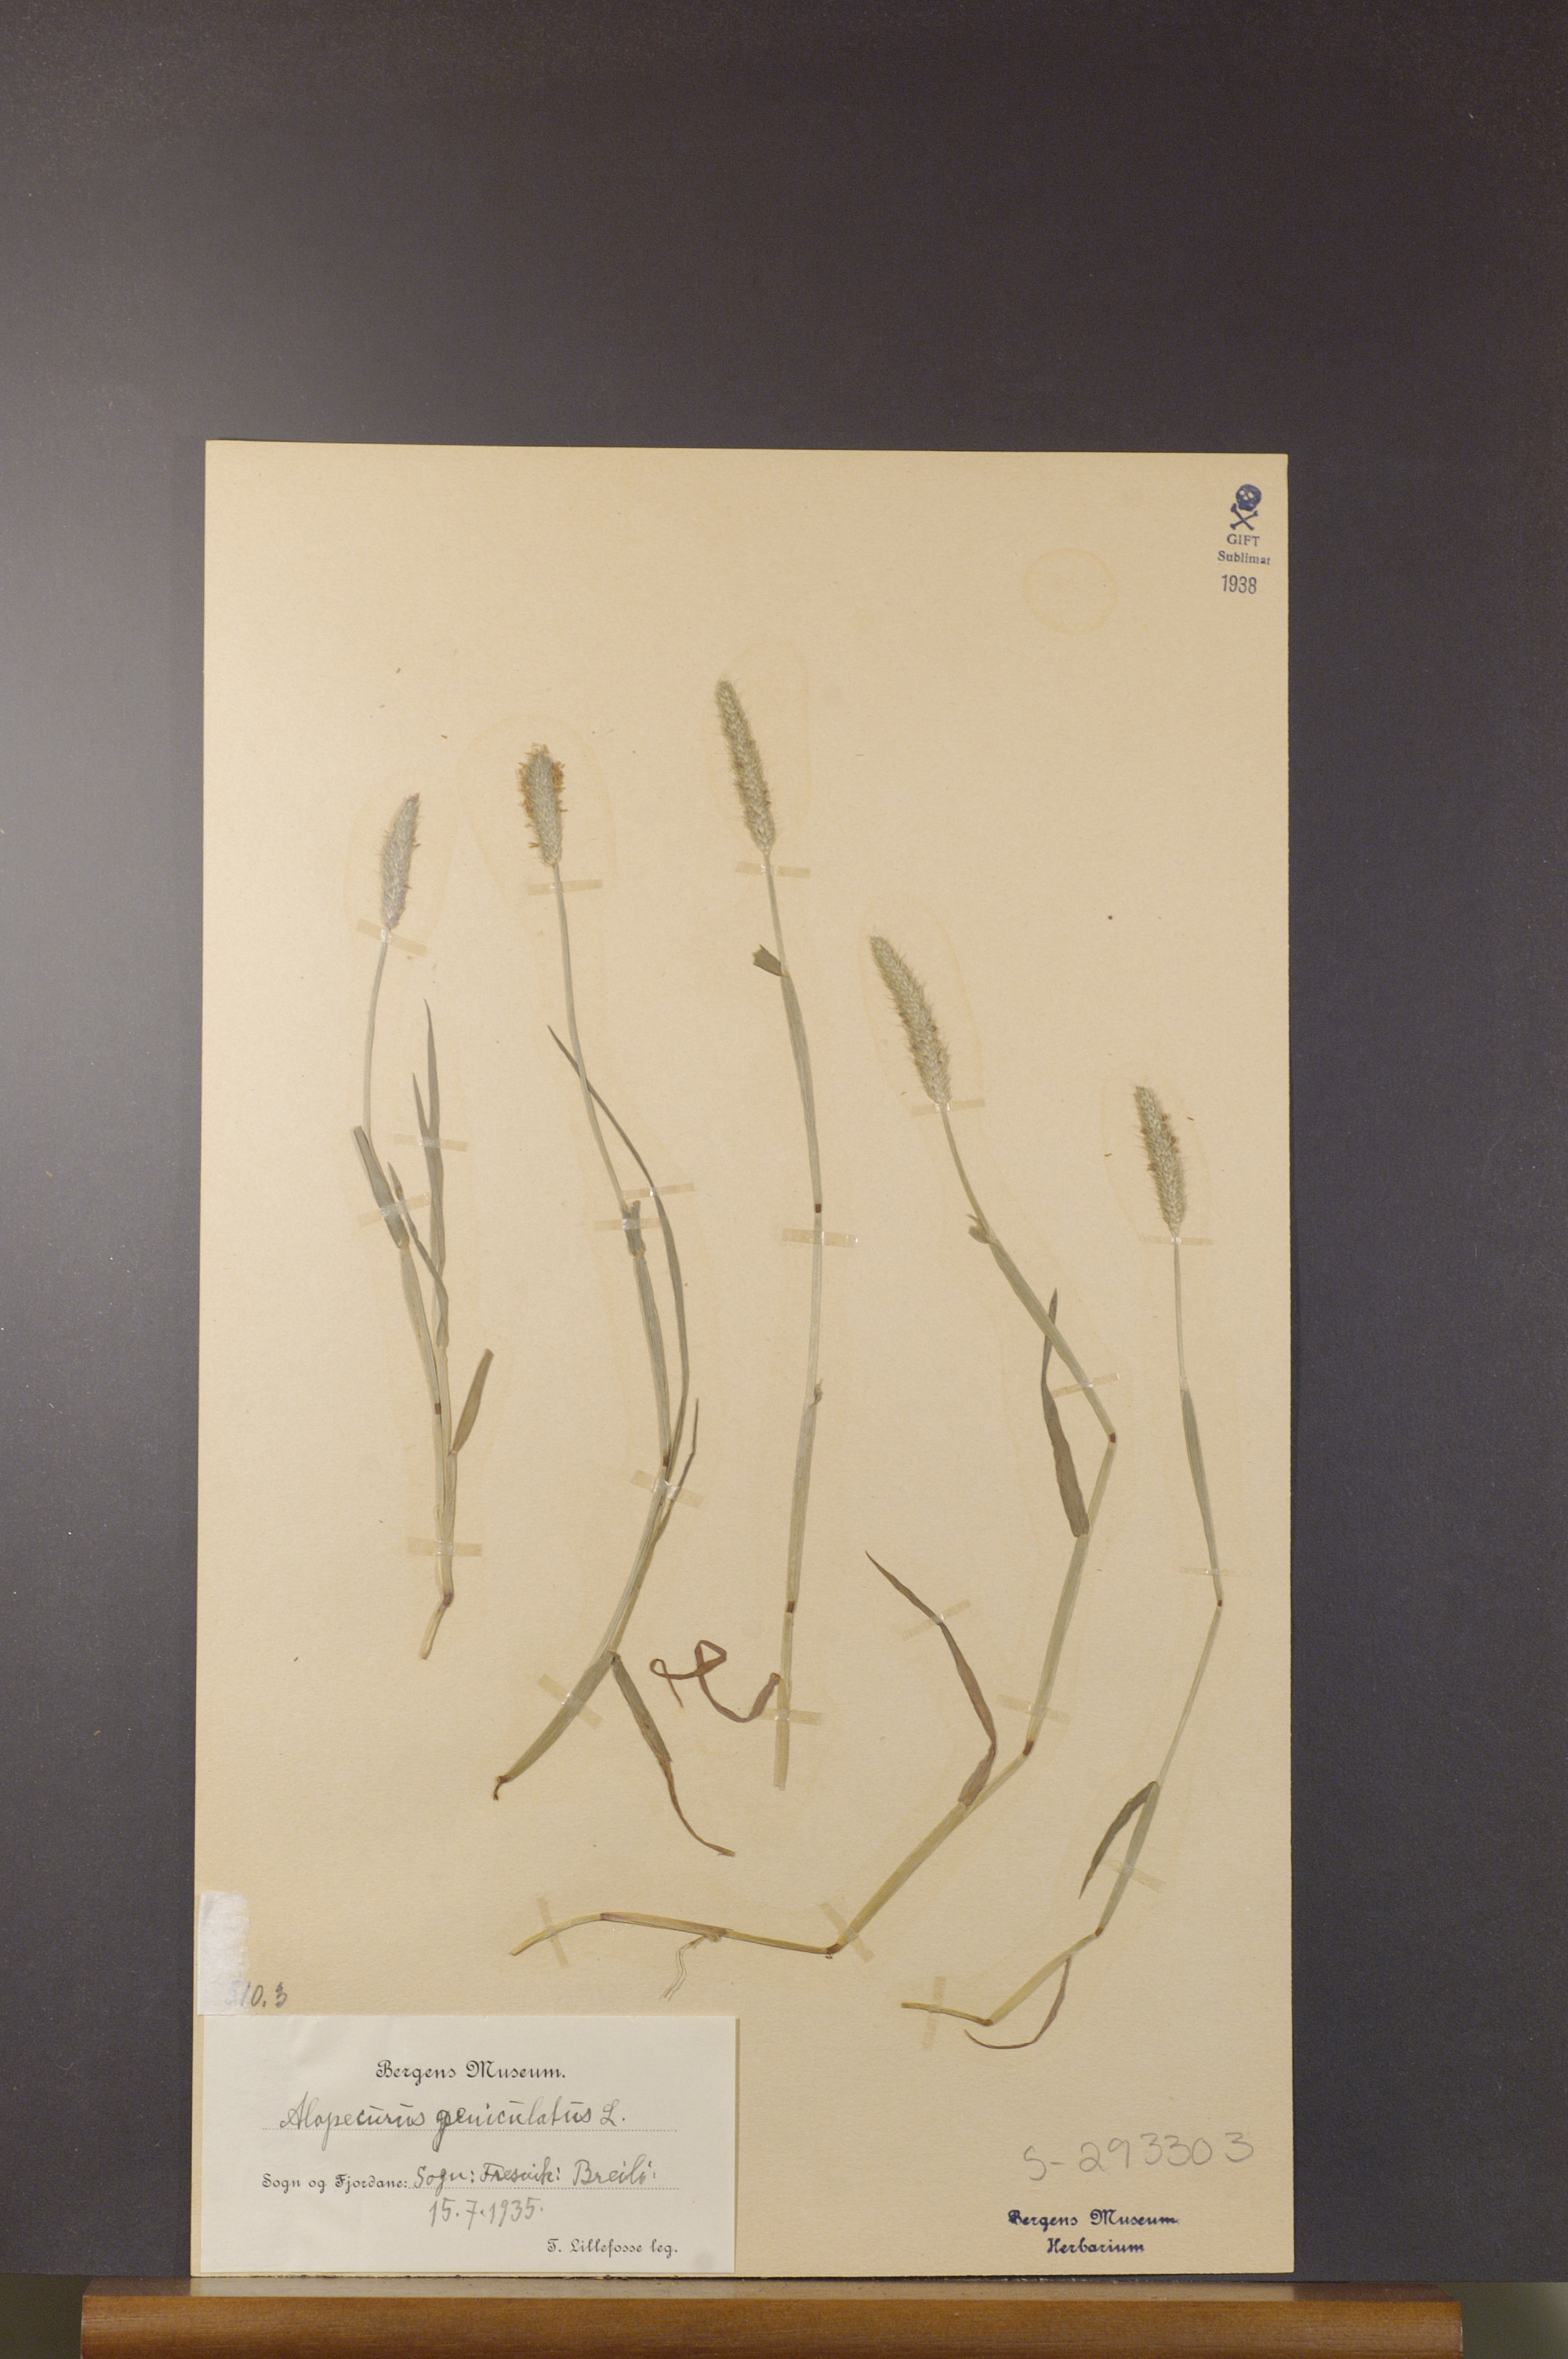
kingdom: Plantae
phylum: Tracheophyta
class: Liliopsida
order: Poales
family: Poaceae
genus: Alopecurus
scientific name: Alopecurus geniculatus
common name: Water foxtail
